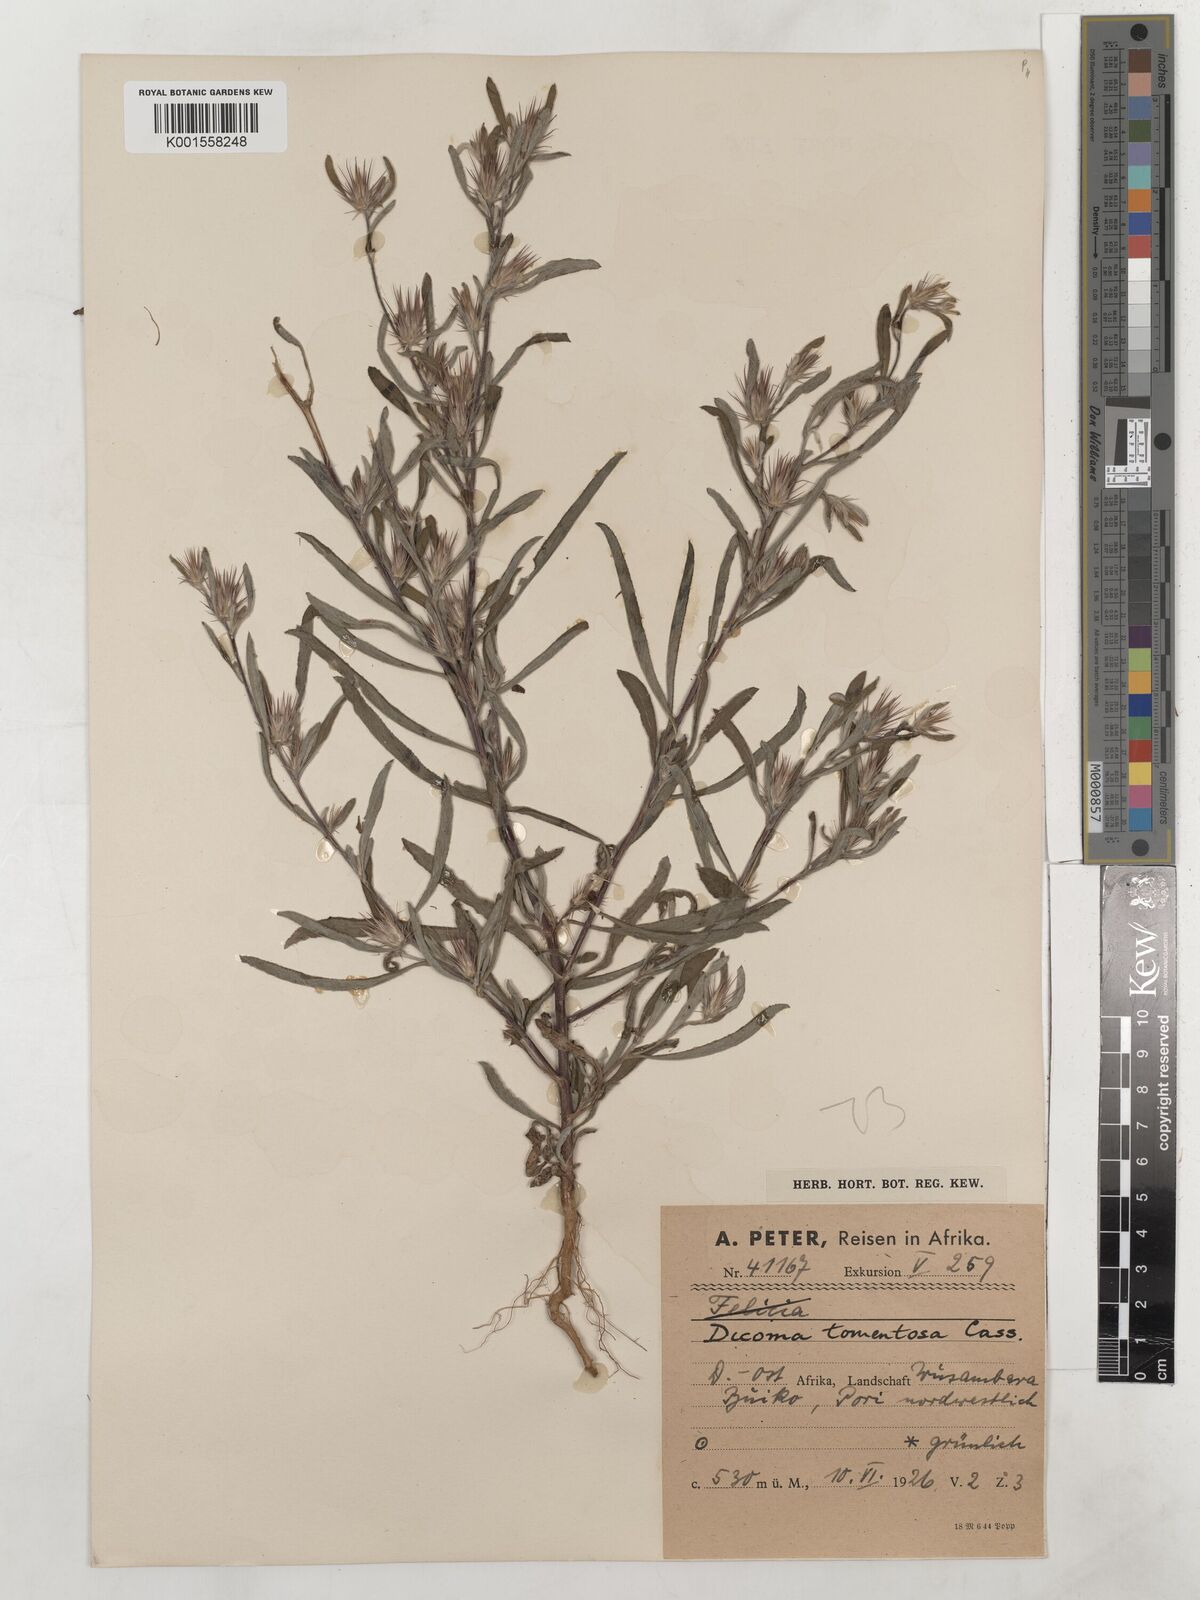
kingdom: Plantae
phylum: Tracheophyta
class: Magnoliopsida
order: Asterales
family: Asteraceae
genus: Dicoma
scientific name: Dicoma tomentosa
